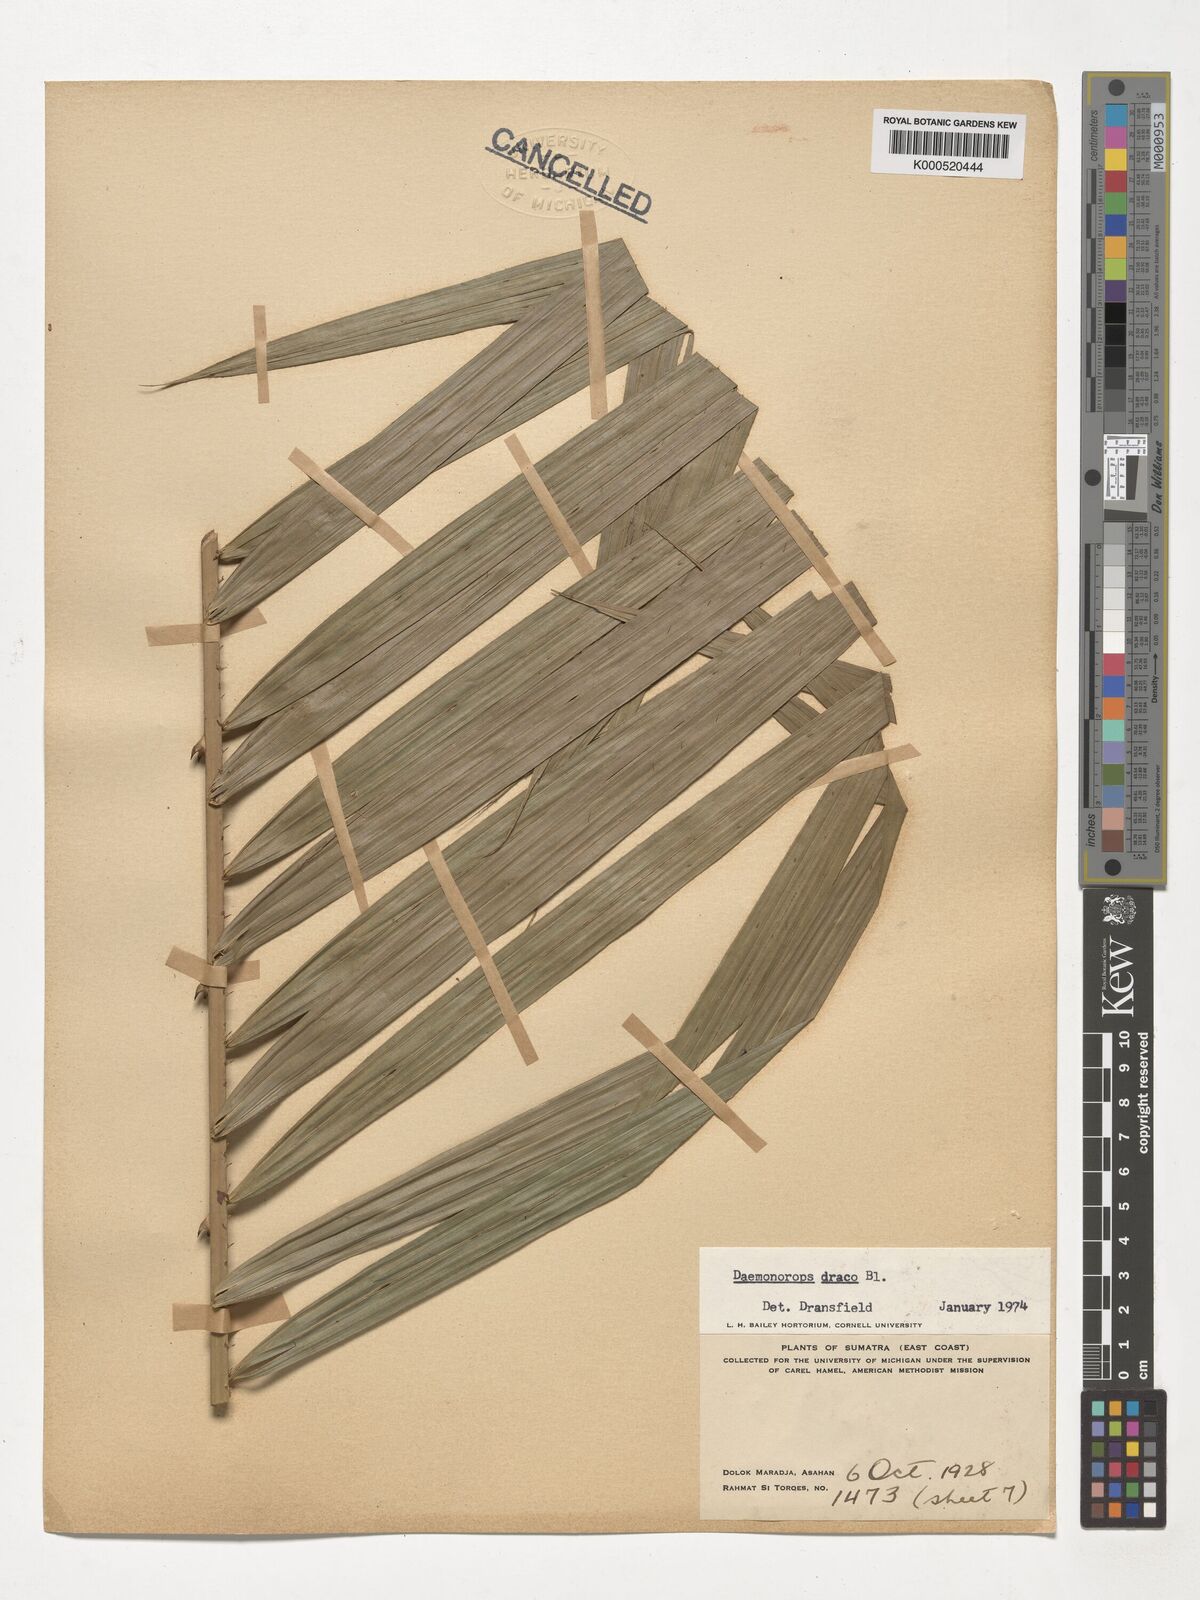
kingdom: Plantae
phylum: Tracheophyta
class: Liliopsida
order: Arecales
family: Arecaceae
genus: Calamus
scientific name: Calamus draco
